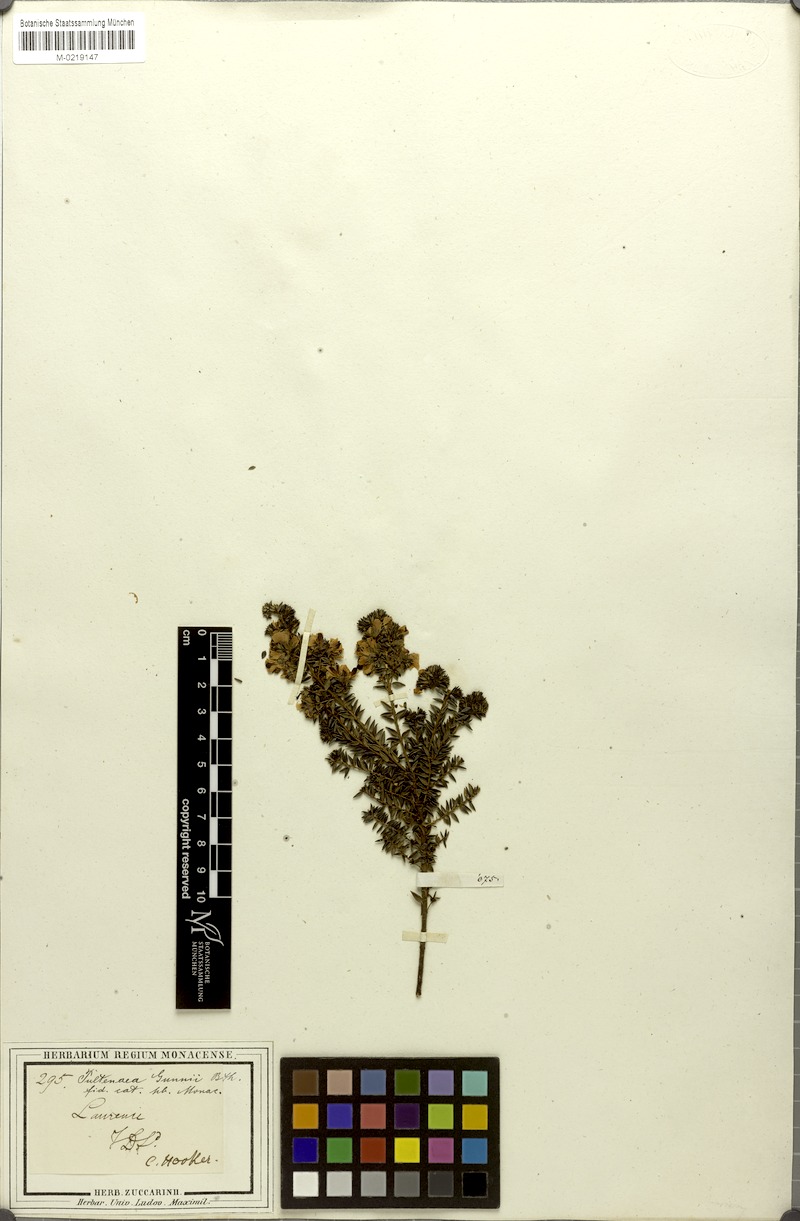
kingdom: Plantae
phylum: Tracheophyta
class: Magnoliopsida
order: Fabales
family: Fabaceae
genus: Pultenaea
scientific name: Pultenaea gunnii
